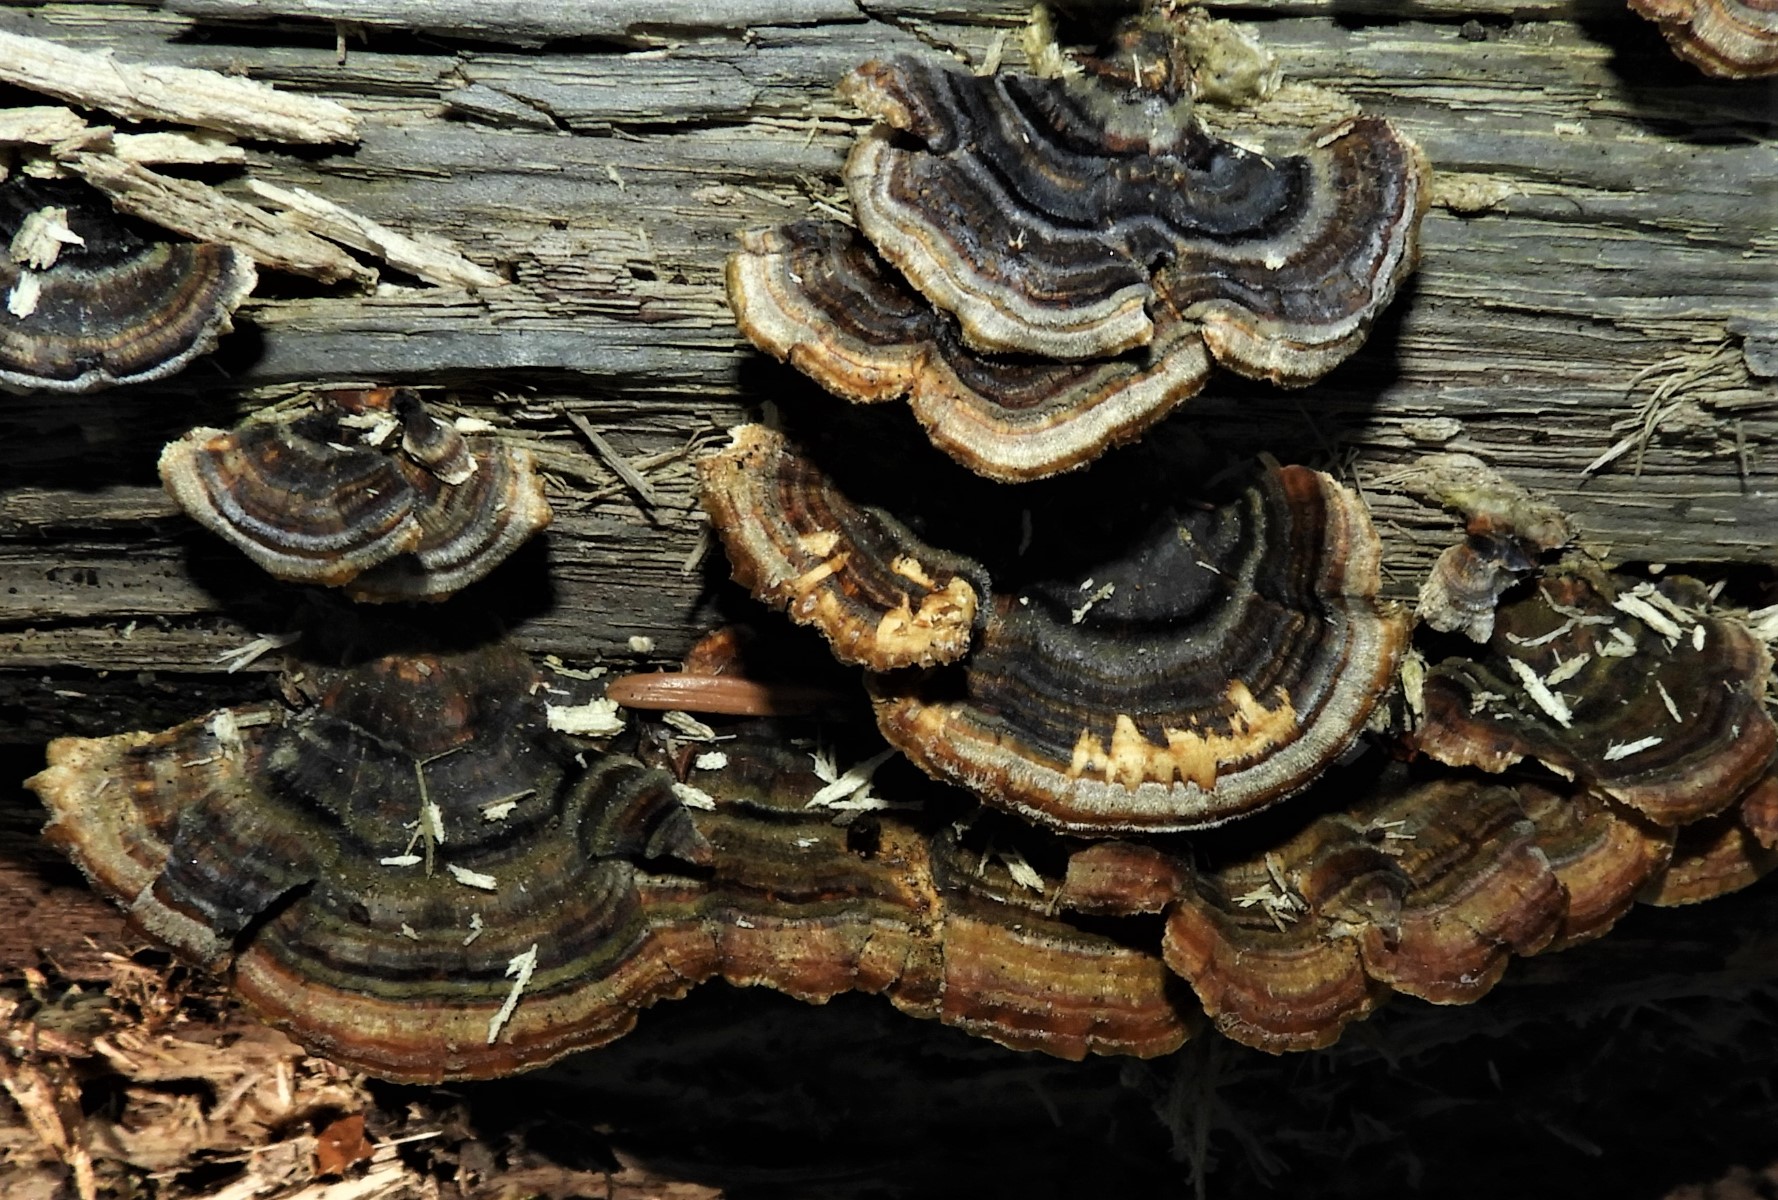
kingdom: Fungi
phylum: Basidiomycota
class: Agaricomycetes
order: Polyporales
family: Polyporaceae
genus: Trametes
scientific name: Trametes versicolor
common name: broget læderporesvamp
